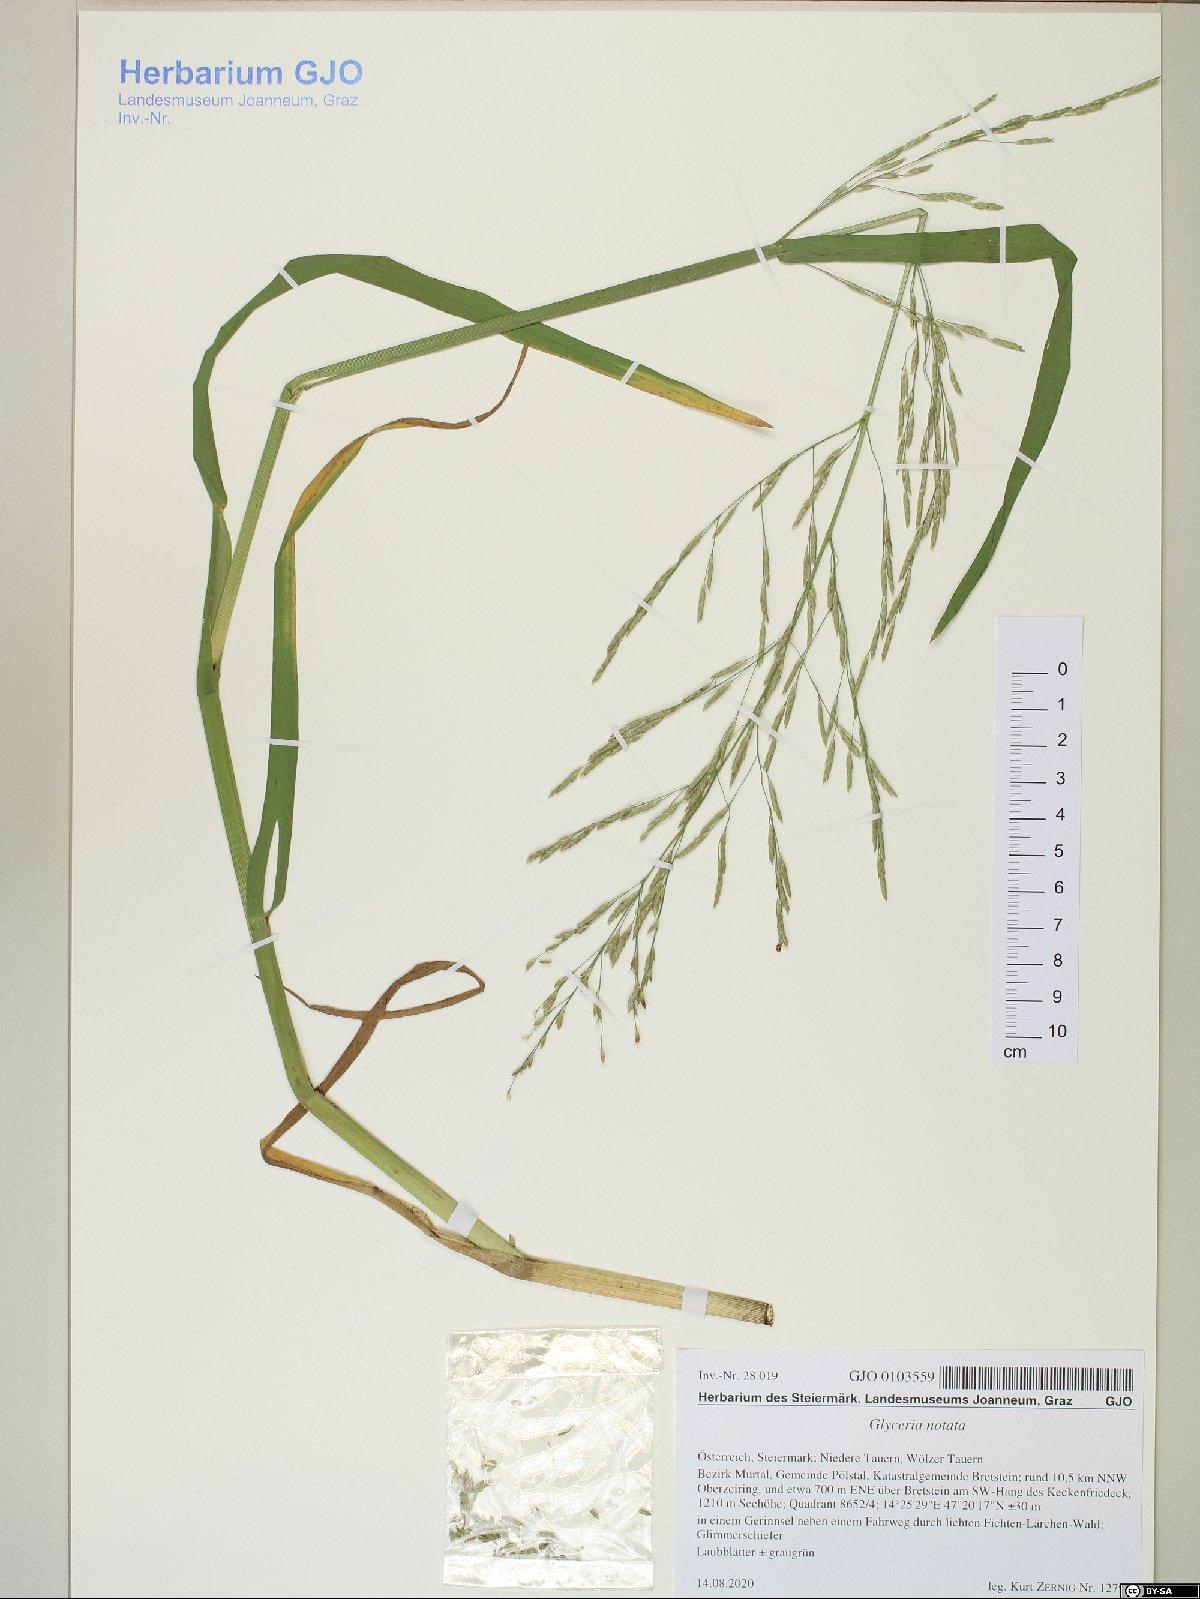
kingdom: Plantae
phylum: Tracheophyta
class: Liliopsida
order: Poales
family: Poaceae
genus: Glyceria
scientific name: Glyceria notata
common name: Plicate sweet-grass
